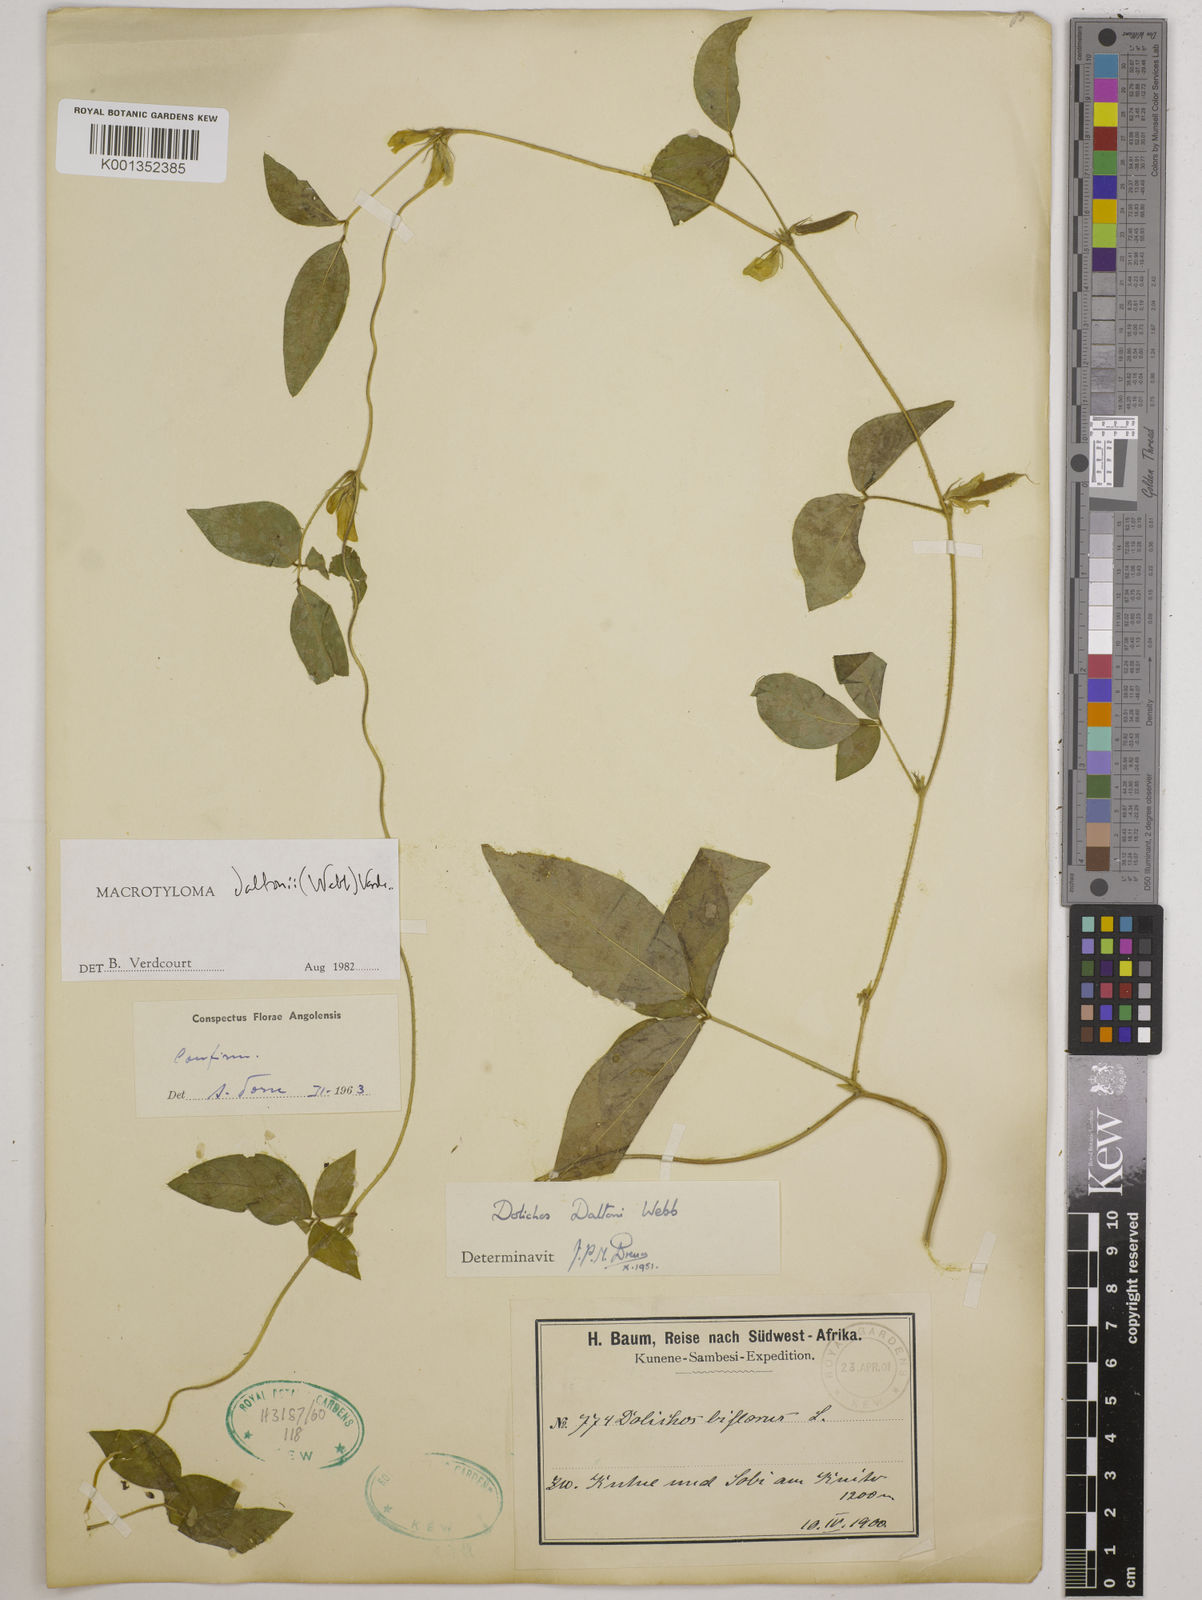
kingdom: Plantae
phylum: Tracheophyta
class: Magnoliopsida
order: Fabales
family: Fabaceae
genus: Macrotyloma
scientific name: Macrotyloma daltonii
